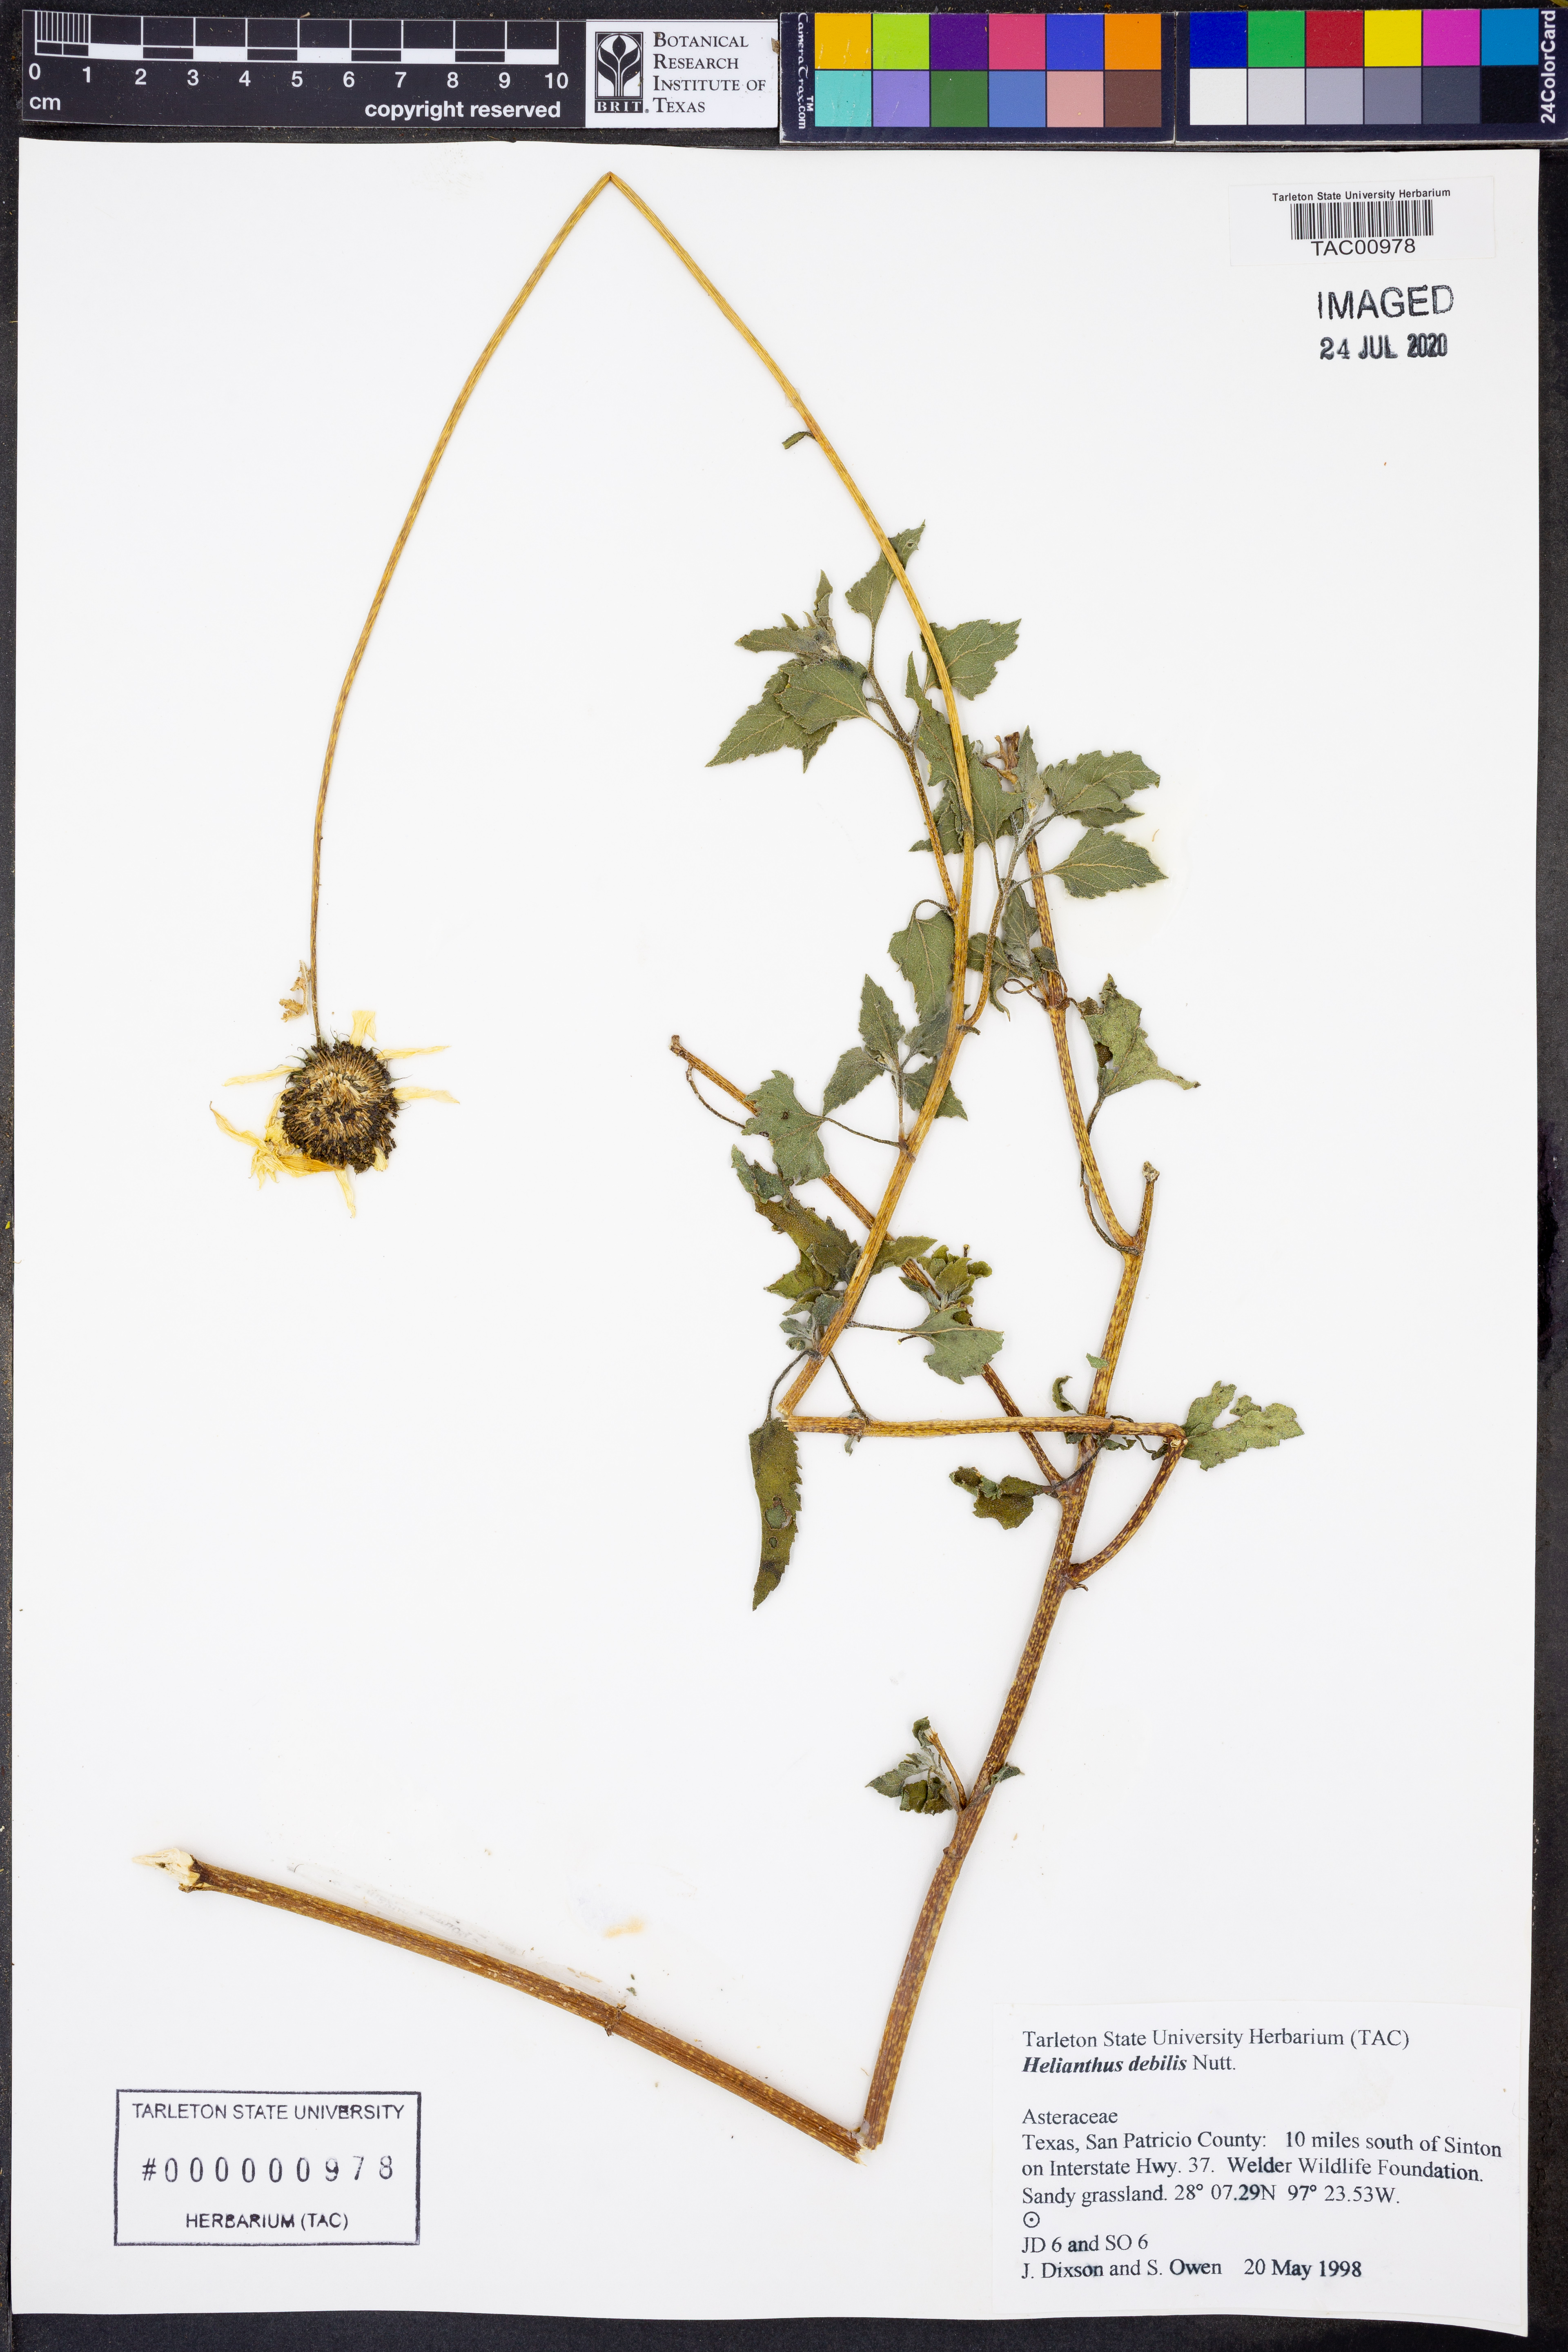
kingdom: Plantae
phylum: Tracheophyta
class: Magnoliopsida
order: Asterales
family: Asteraceae
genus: Helianthus
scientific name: Helianthus debilis
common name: Weak sunflower
